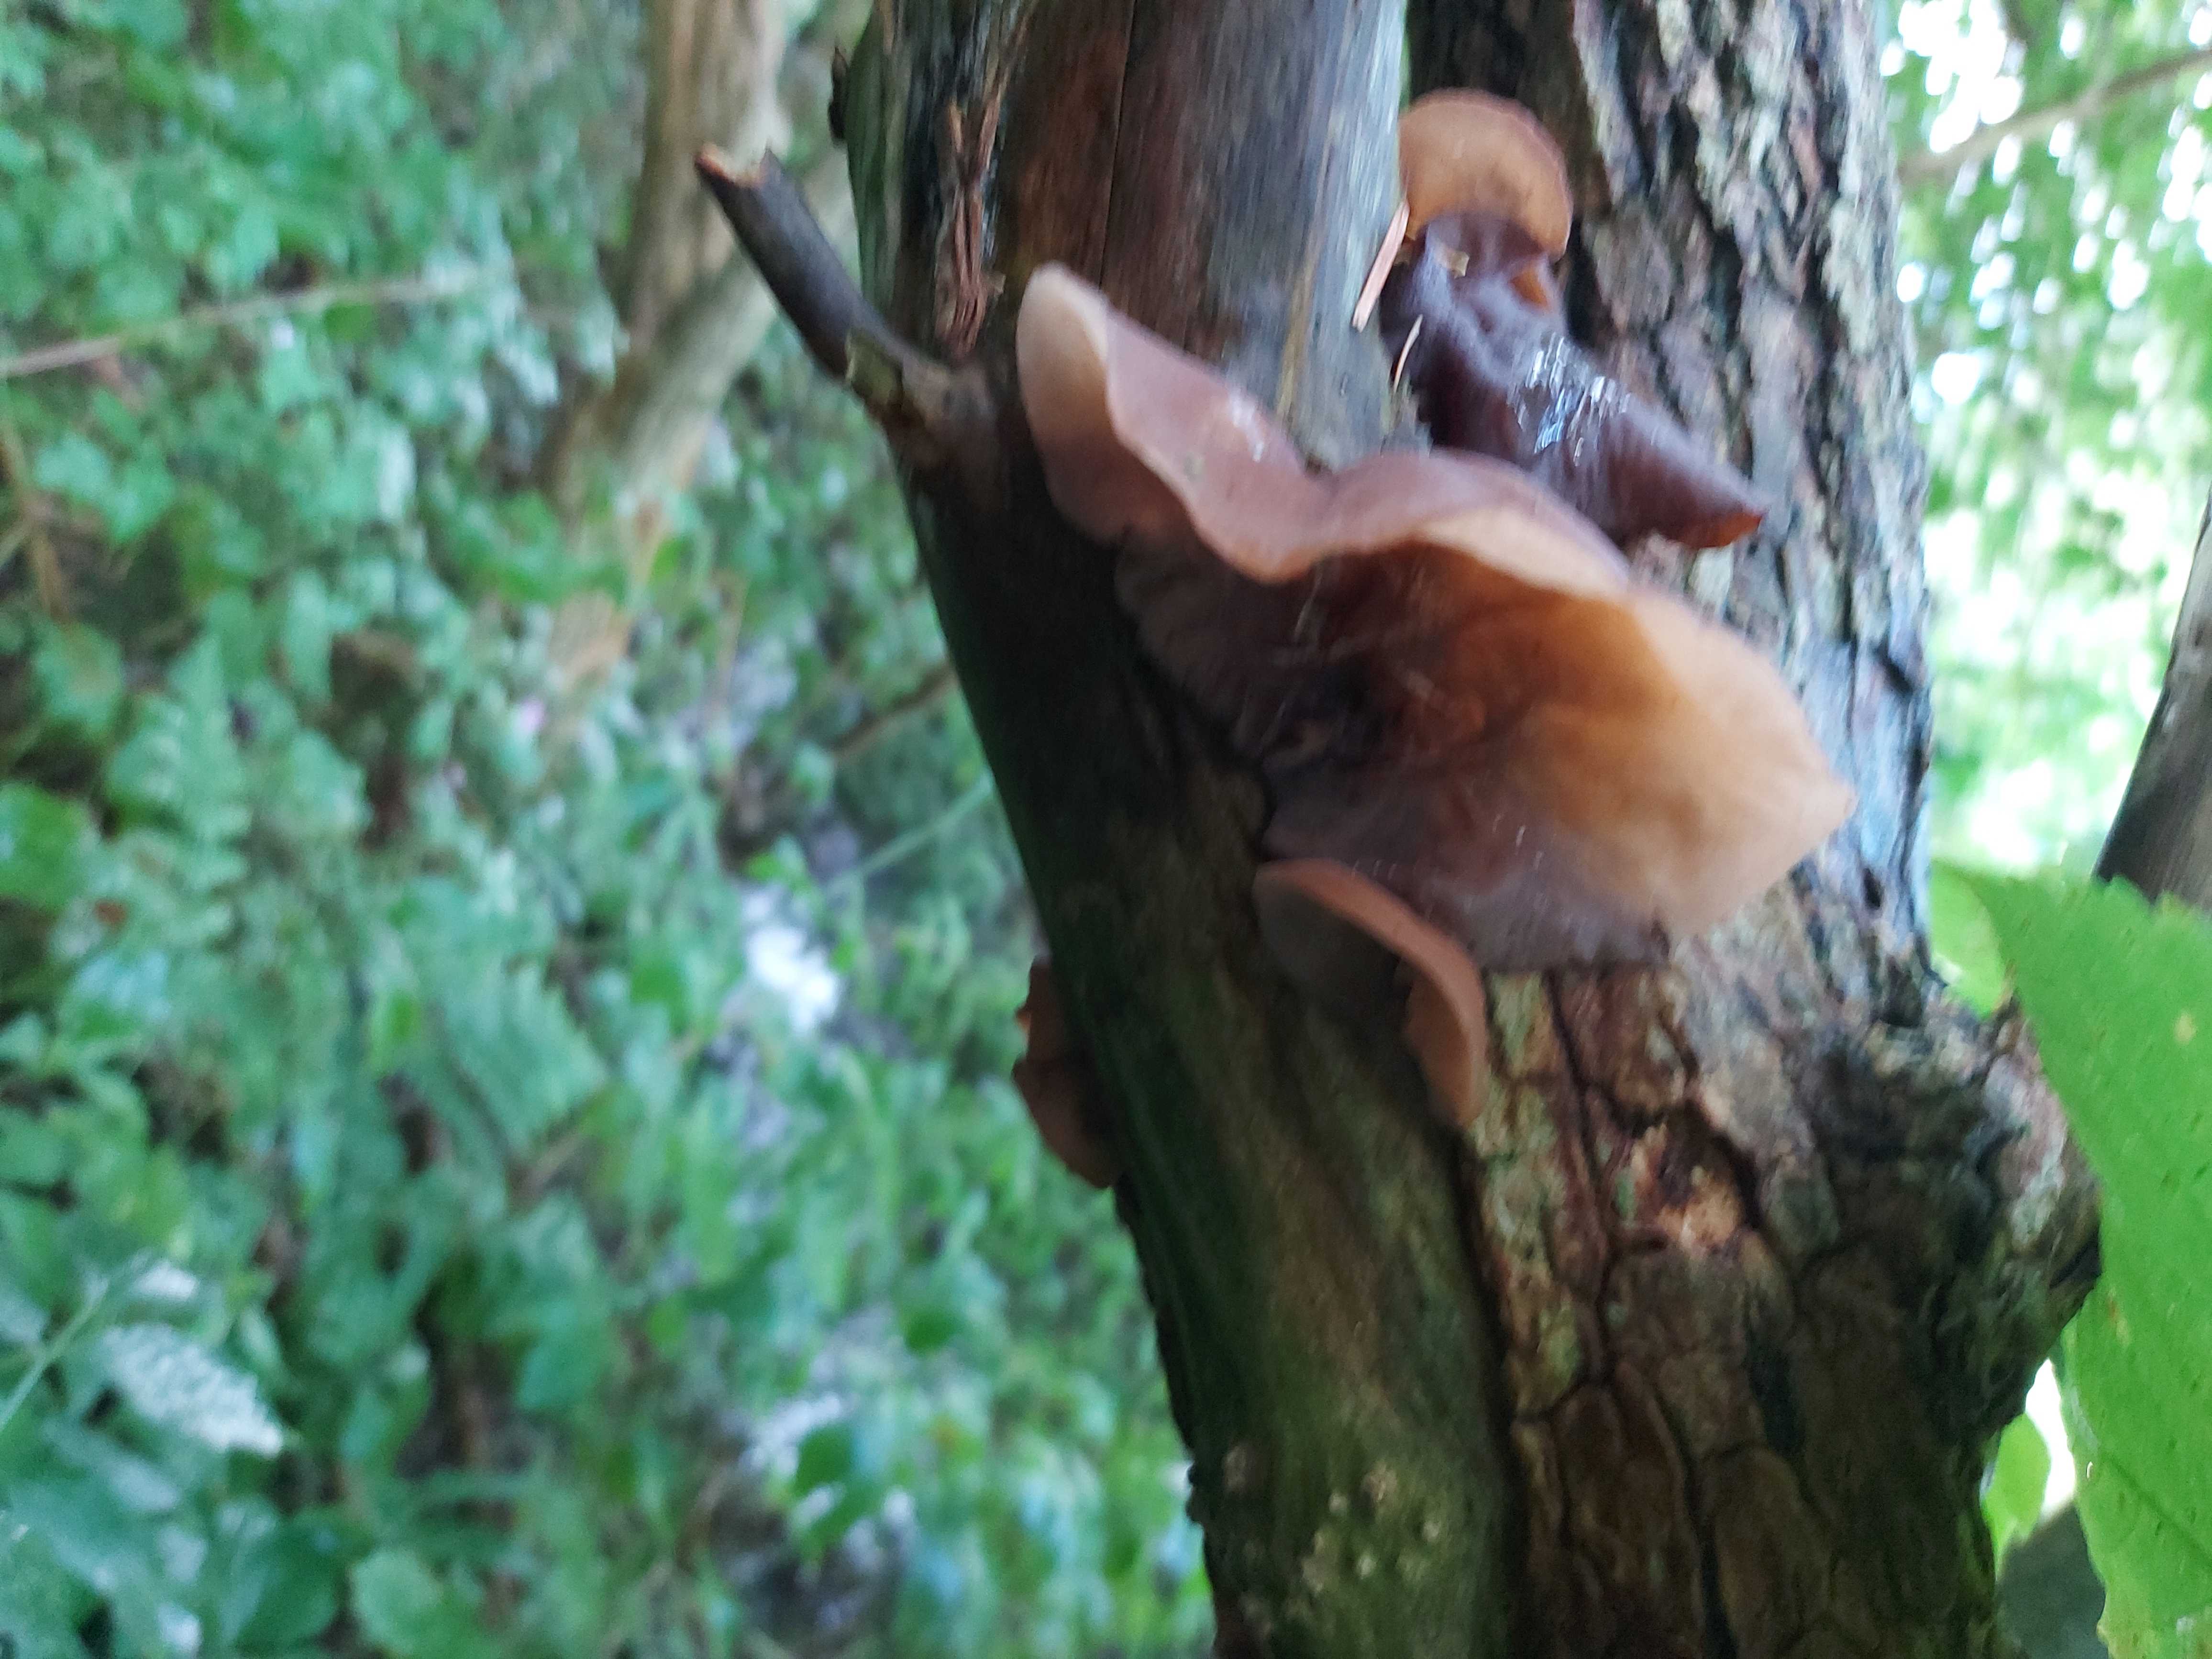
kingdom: Fungi
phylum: Basidiomycota
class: Agaricomycetes
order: Auriculariales
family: Auriculariaceae
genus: Auricularia
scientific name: Auricularia auricula-judae
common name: almindelig judasøre
